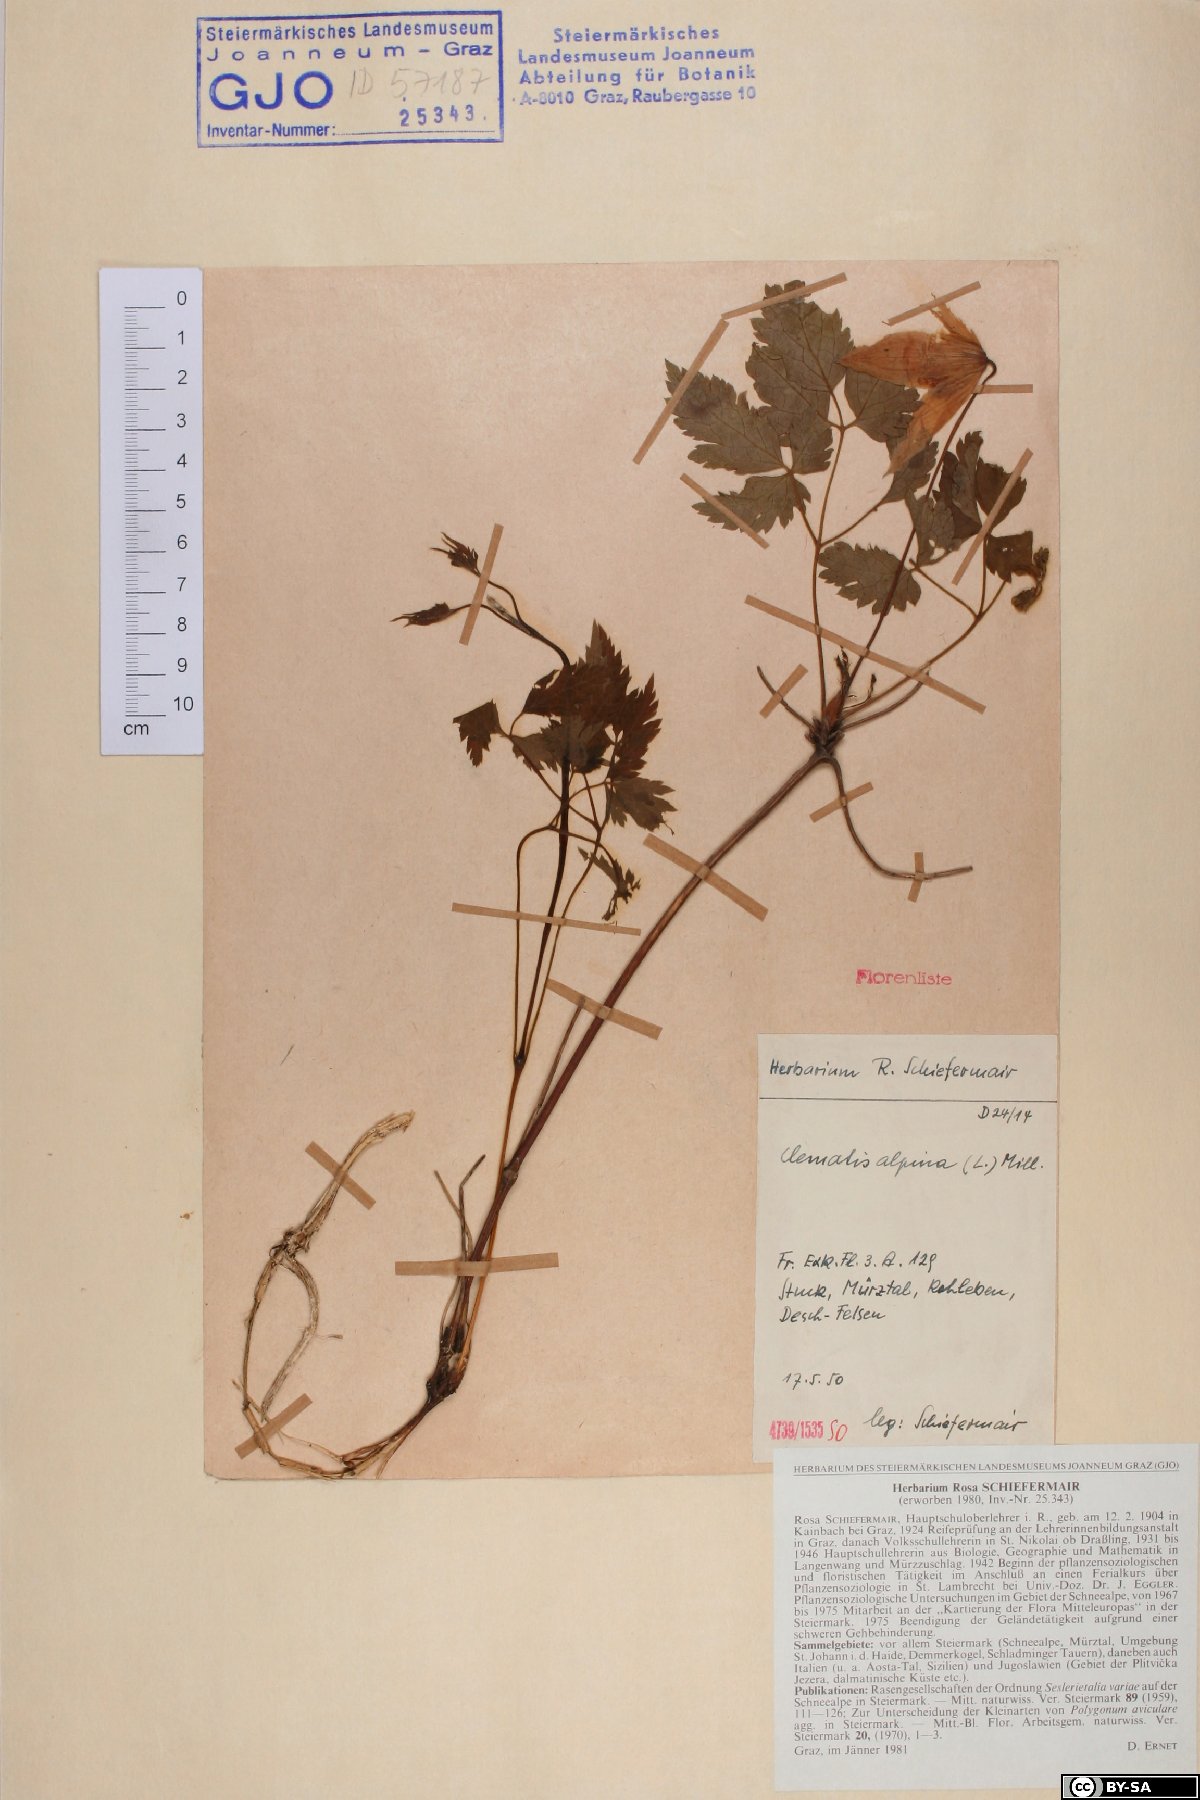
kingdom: Plantae
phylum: Tracheophyta
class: Magnoliopsida
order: Ranunculales
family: Ranunculaceae
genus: Clematis
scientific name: Clematis alpina
